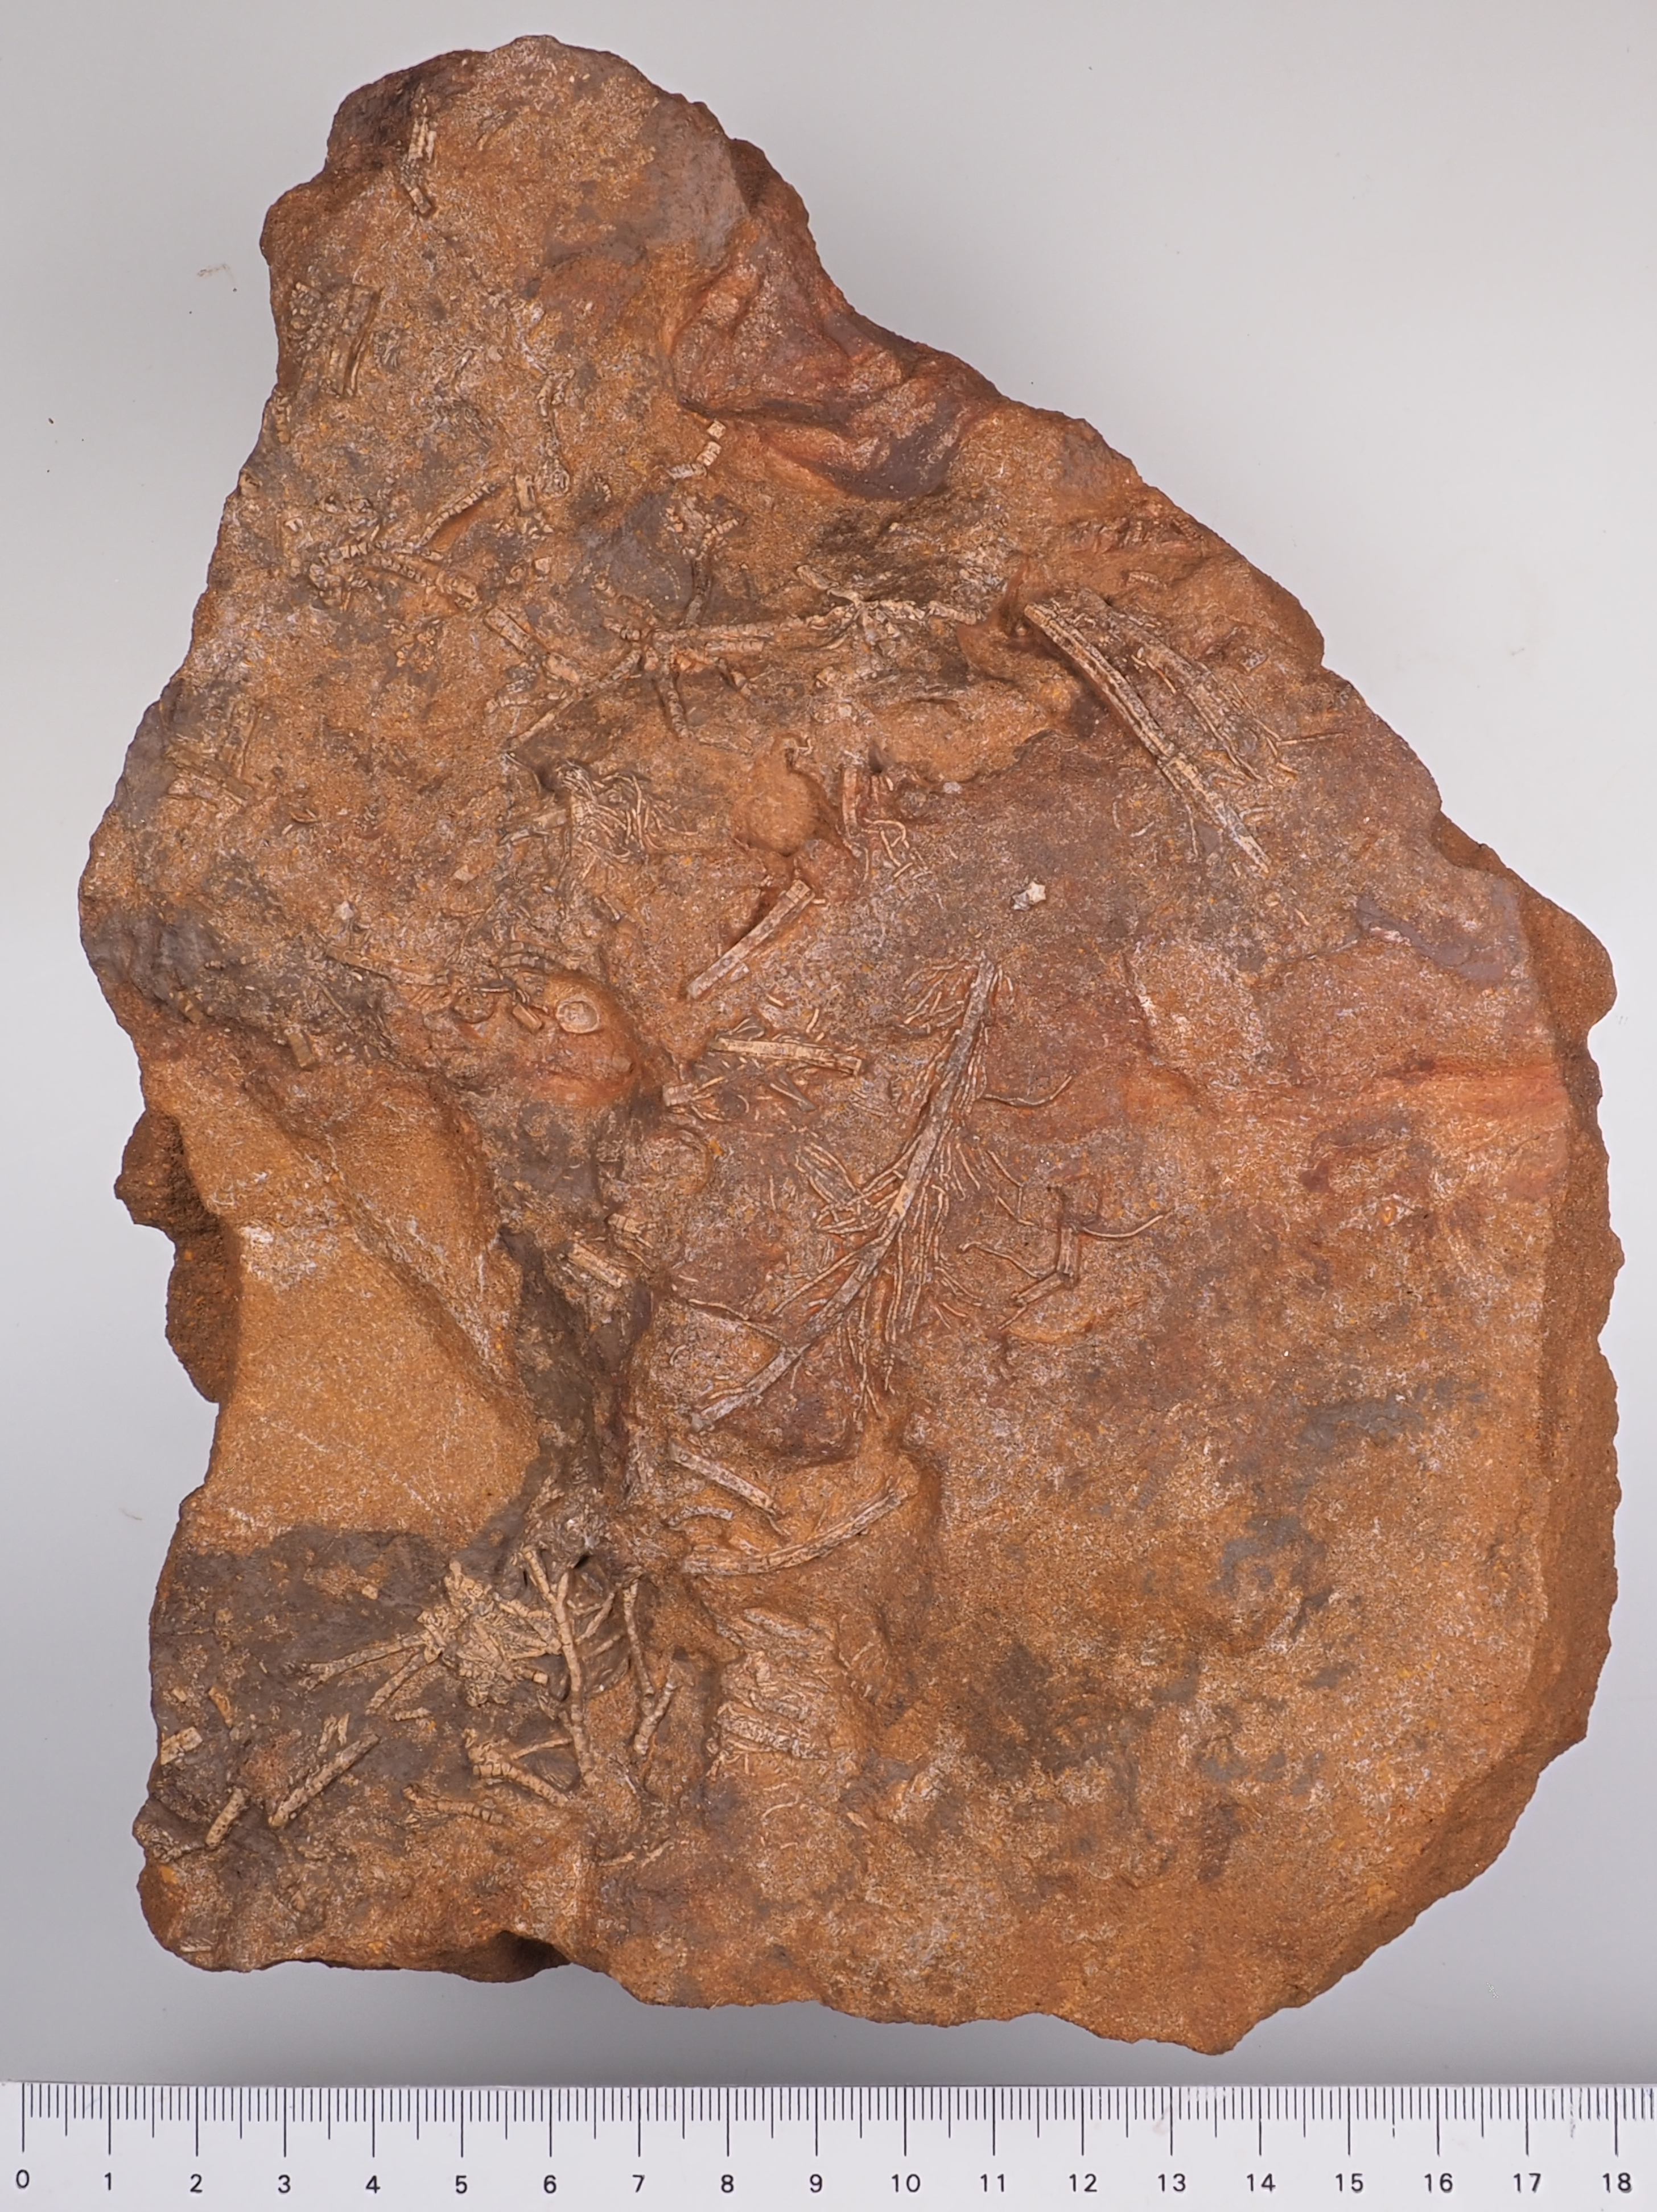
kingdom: Animalia
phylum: Echinodermata
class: Crinoidea
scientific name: Crinoidea
